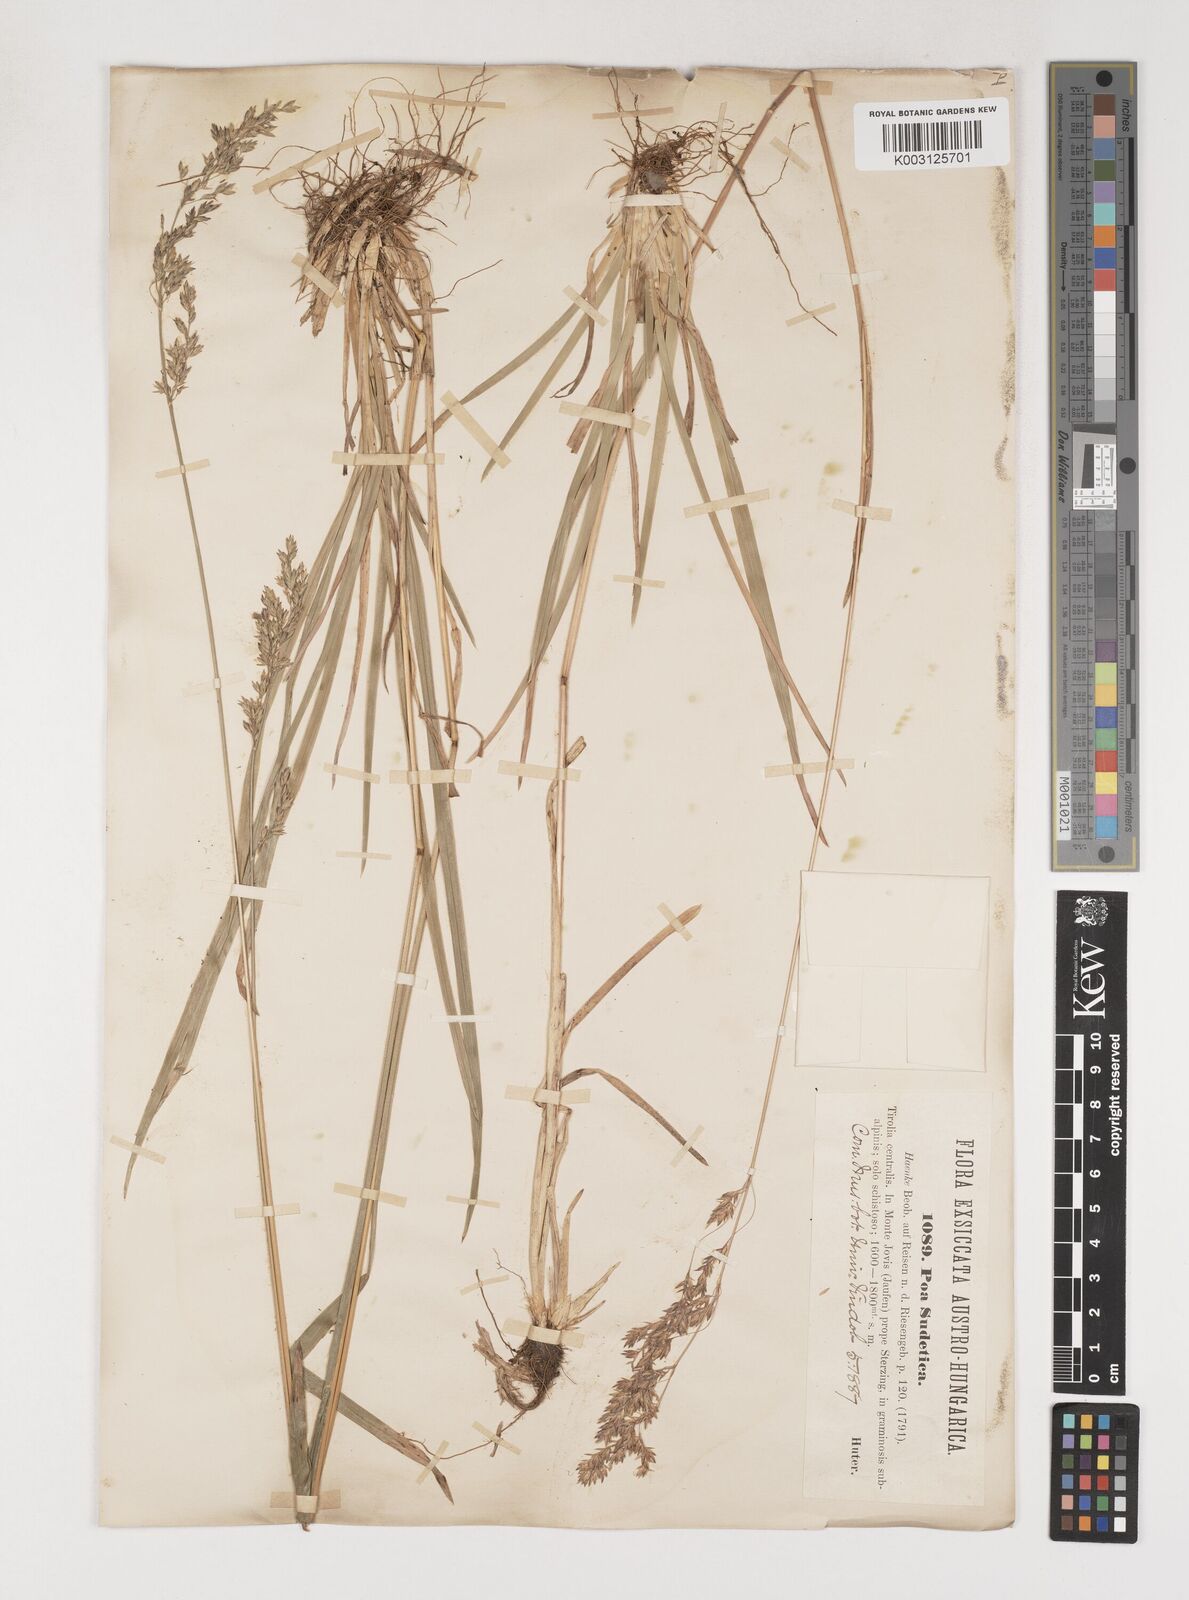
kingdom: Plantae
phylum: Tracheophyta
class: Liliopsida
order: Poales
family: Poaceae
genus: Poa
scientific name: Poa chaixii
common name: Broad-leaved meadow-grass
